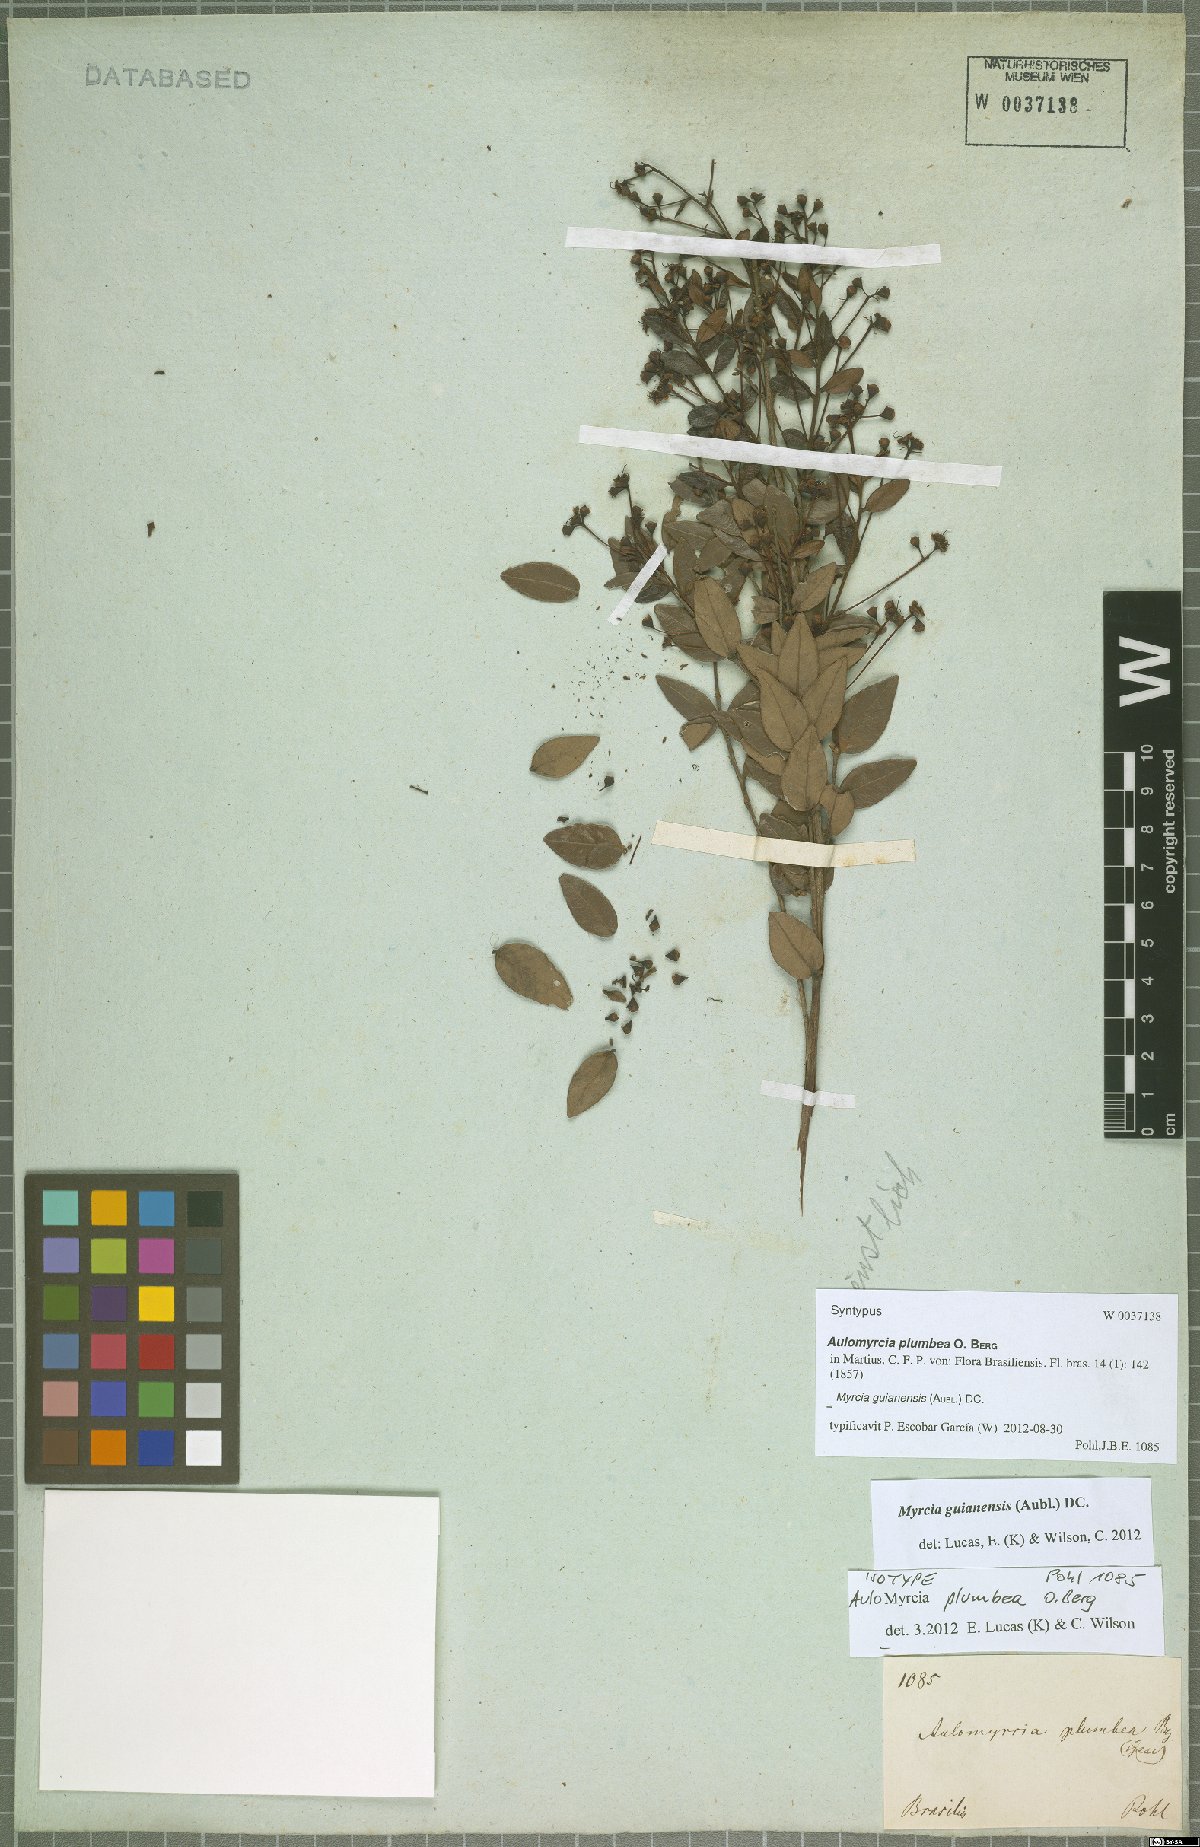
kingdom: Plantae
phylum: Tracheophyta
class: Magnoliopsida
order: Myrtales
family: Myrtaceae
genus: Myrcia
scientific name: Myrcia guianensis
